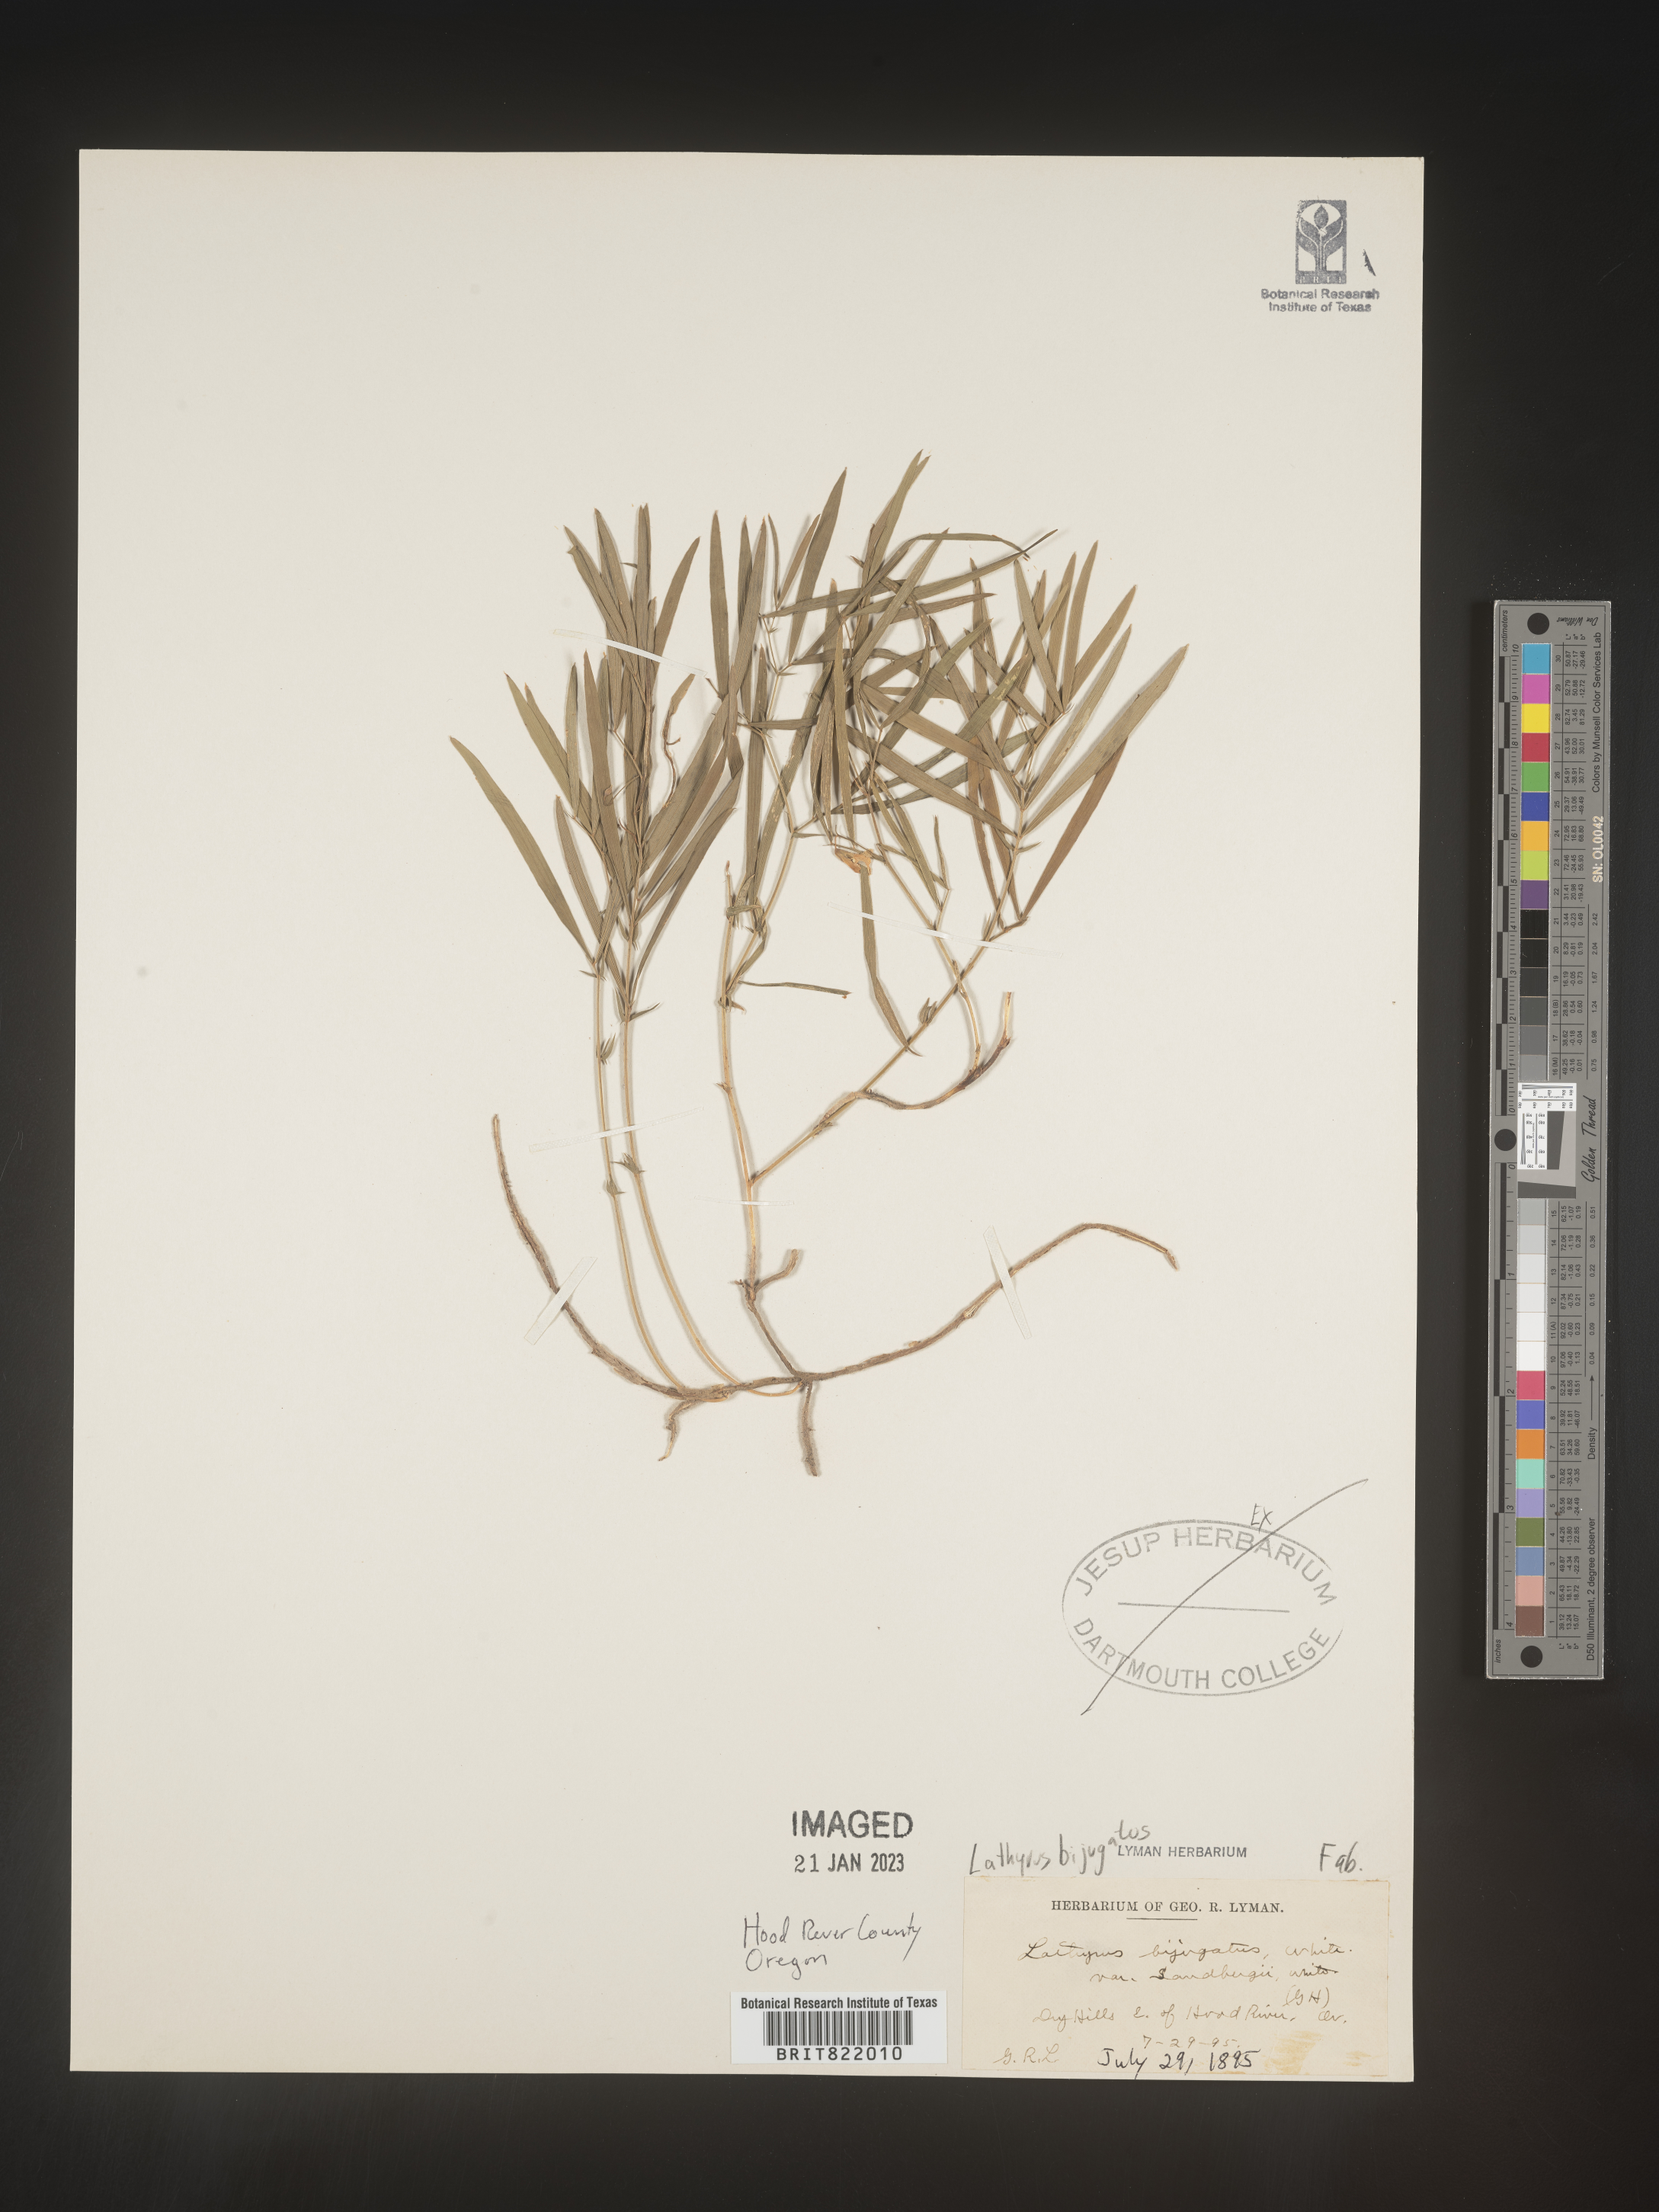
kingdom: Plantae
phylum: Tracheophyta
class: Magnoliopsida
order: Fabales
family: Fabaceae
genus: Lathyrus
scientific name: Lathyrus
